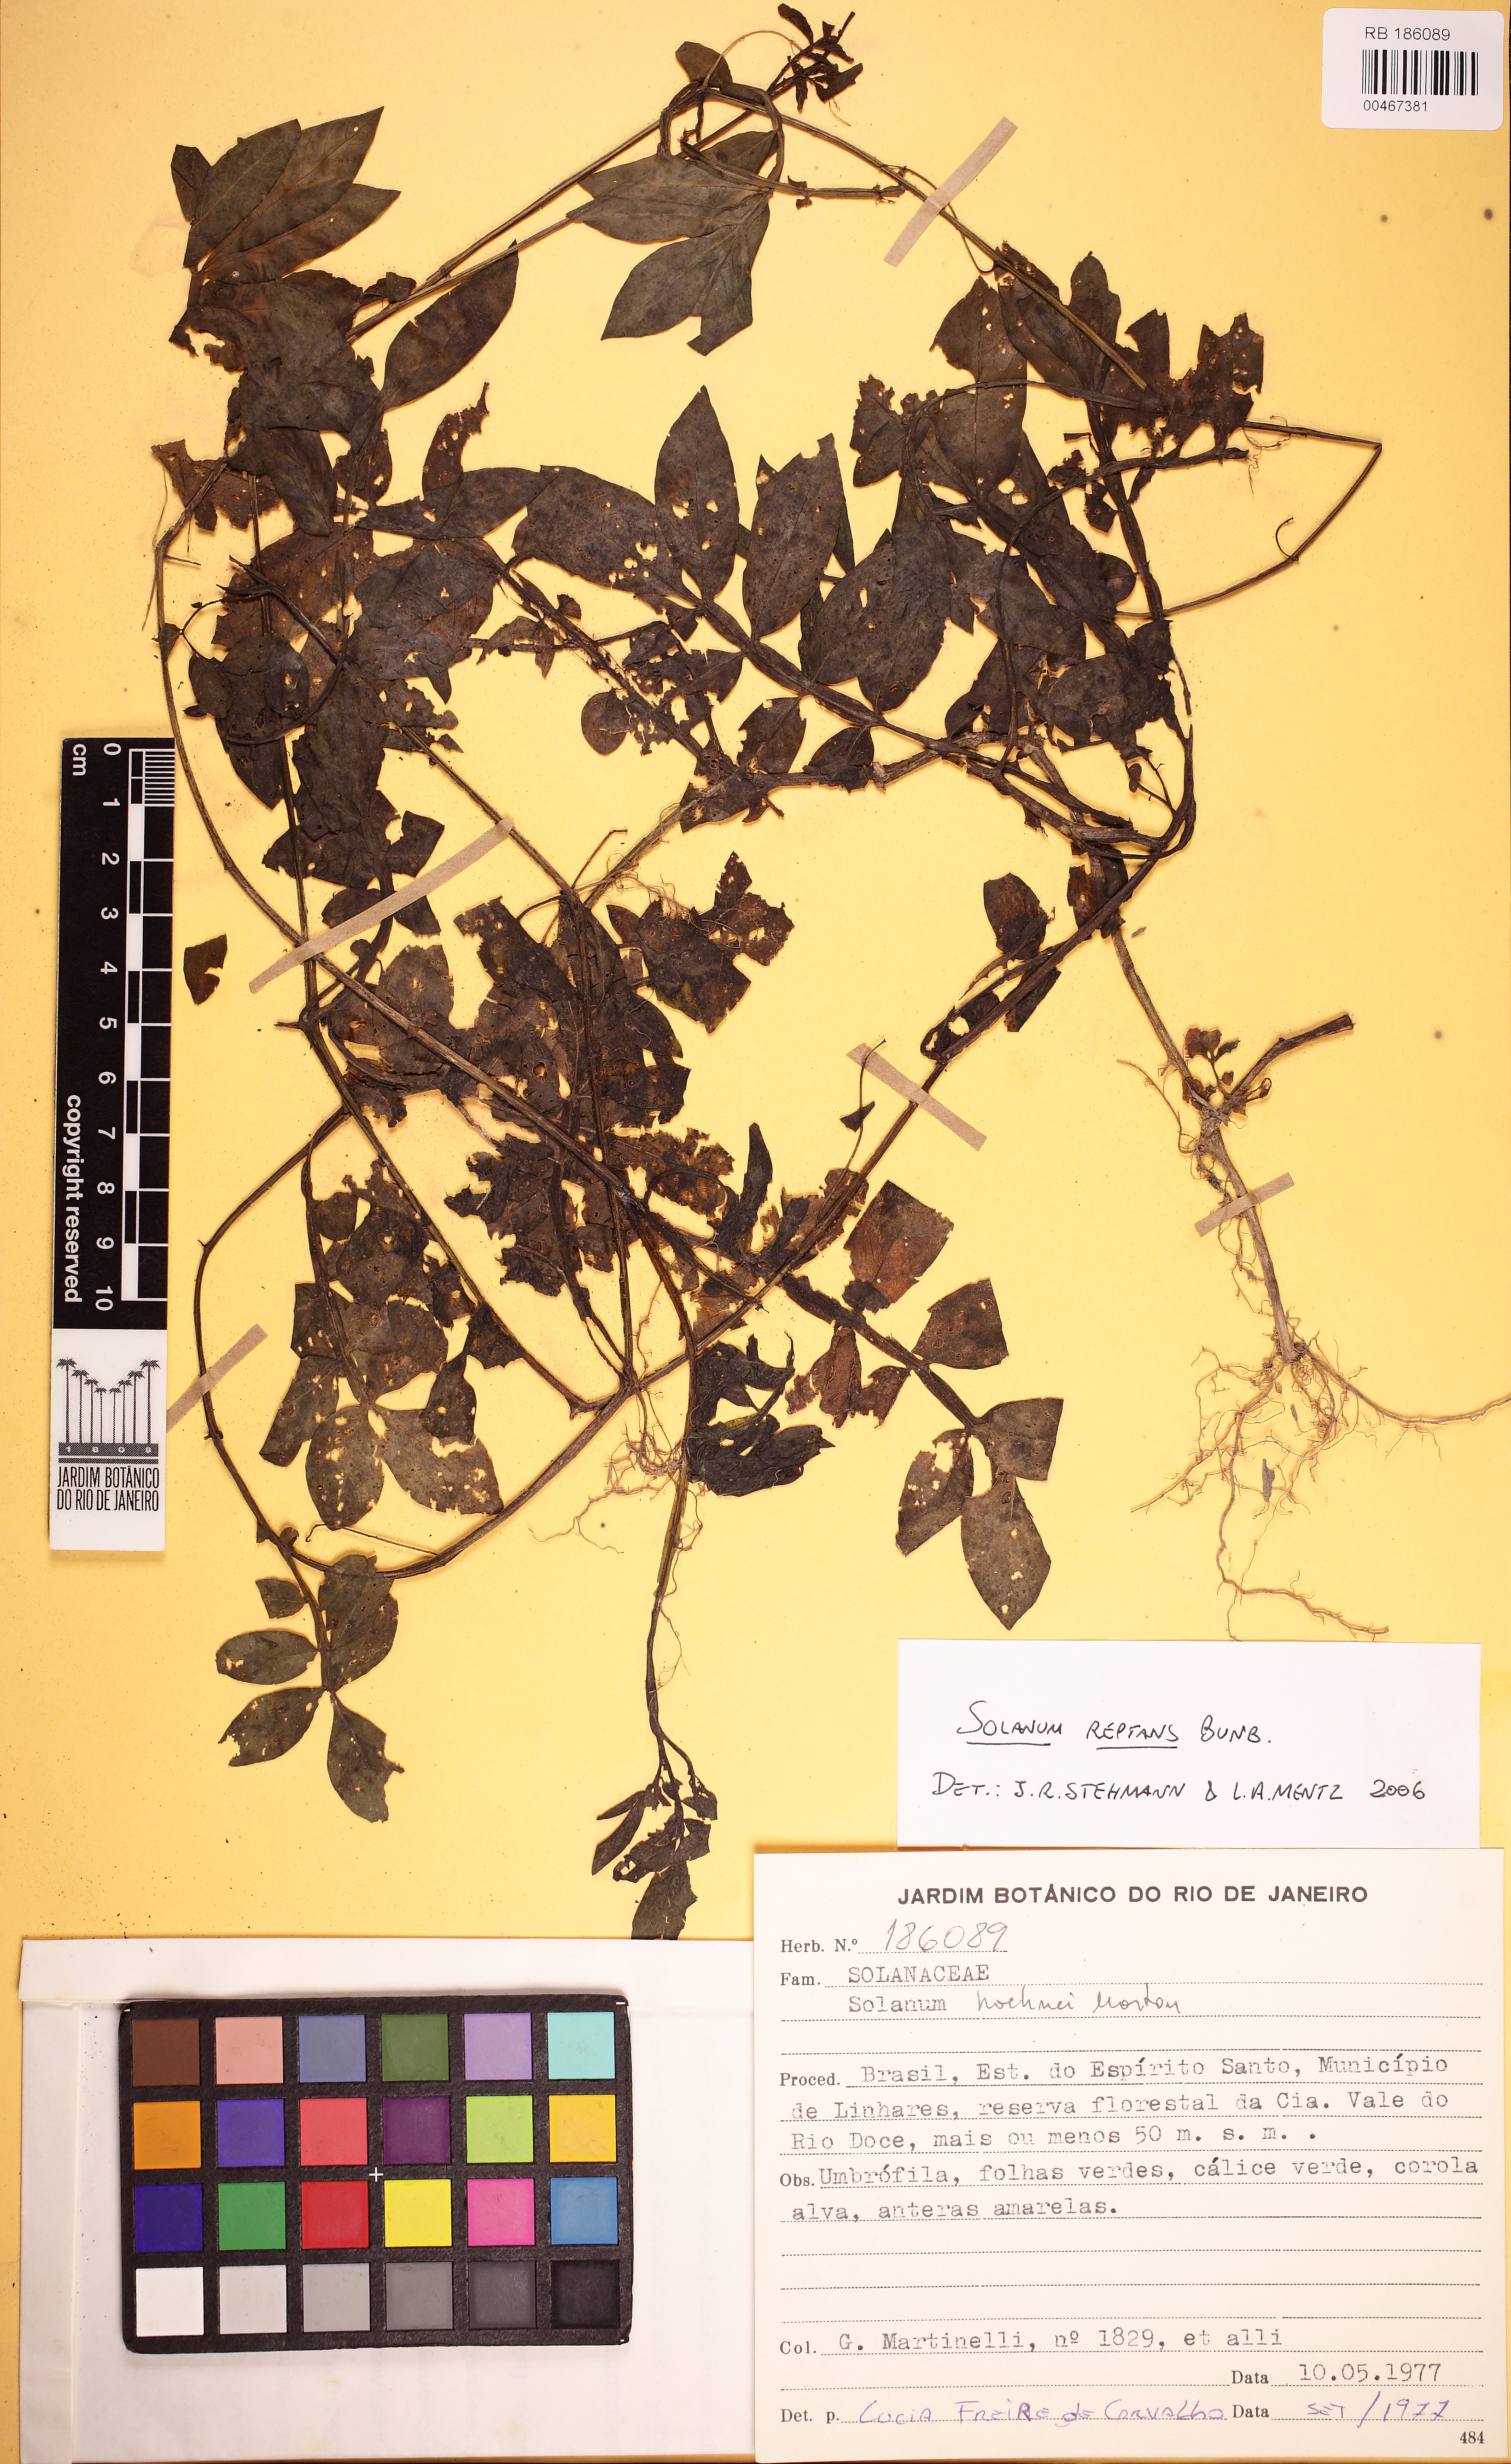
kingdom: Plantae
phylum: Tracheophyta
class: Magnoliopsida
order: Solanales
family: Solanaceae
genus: Solanum
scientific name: Solanum reptans
